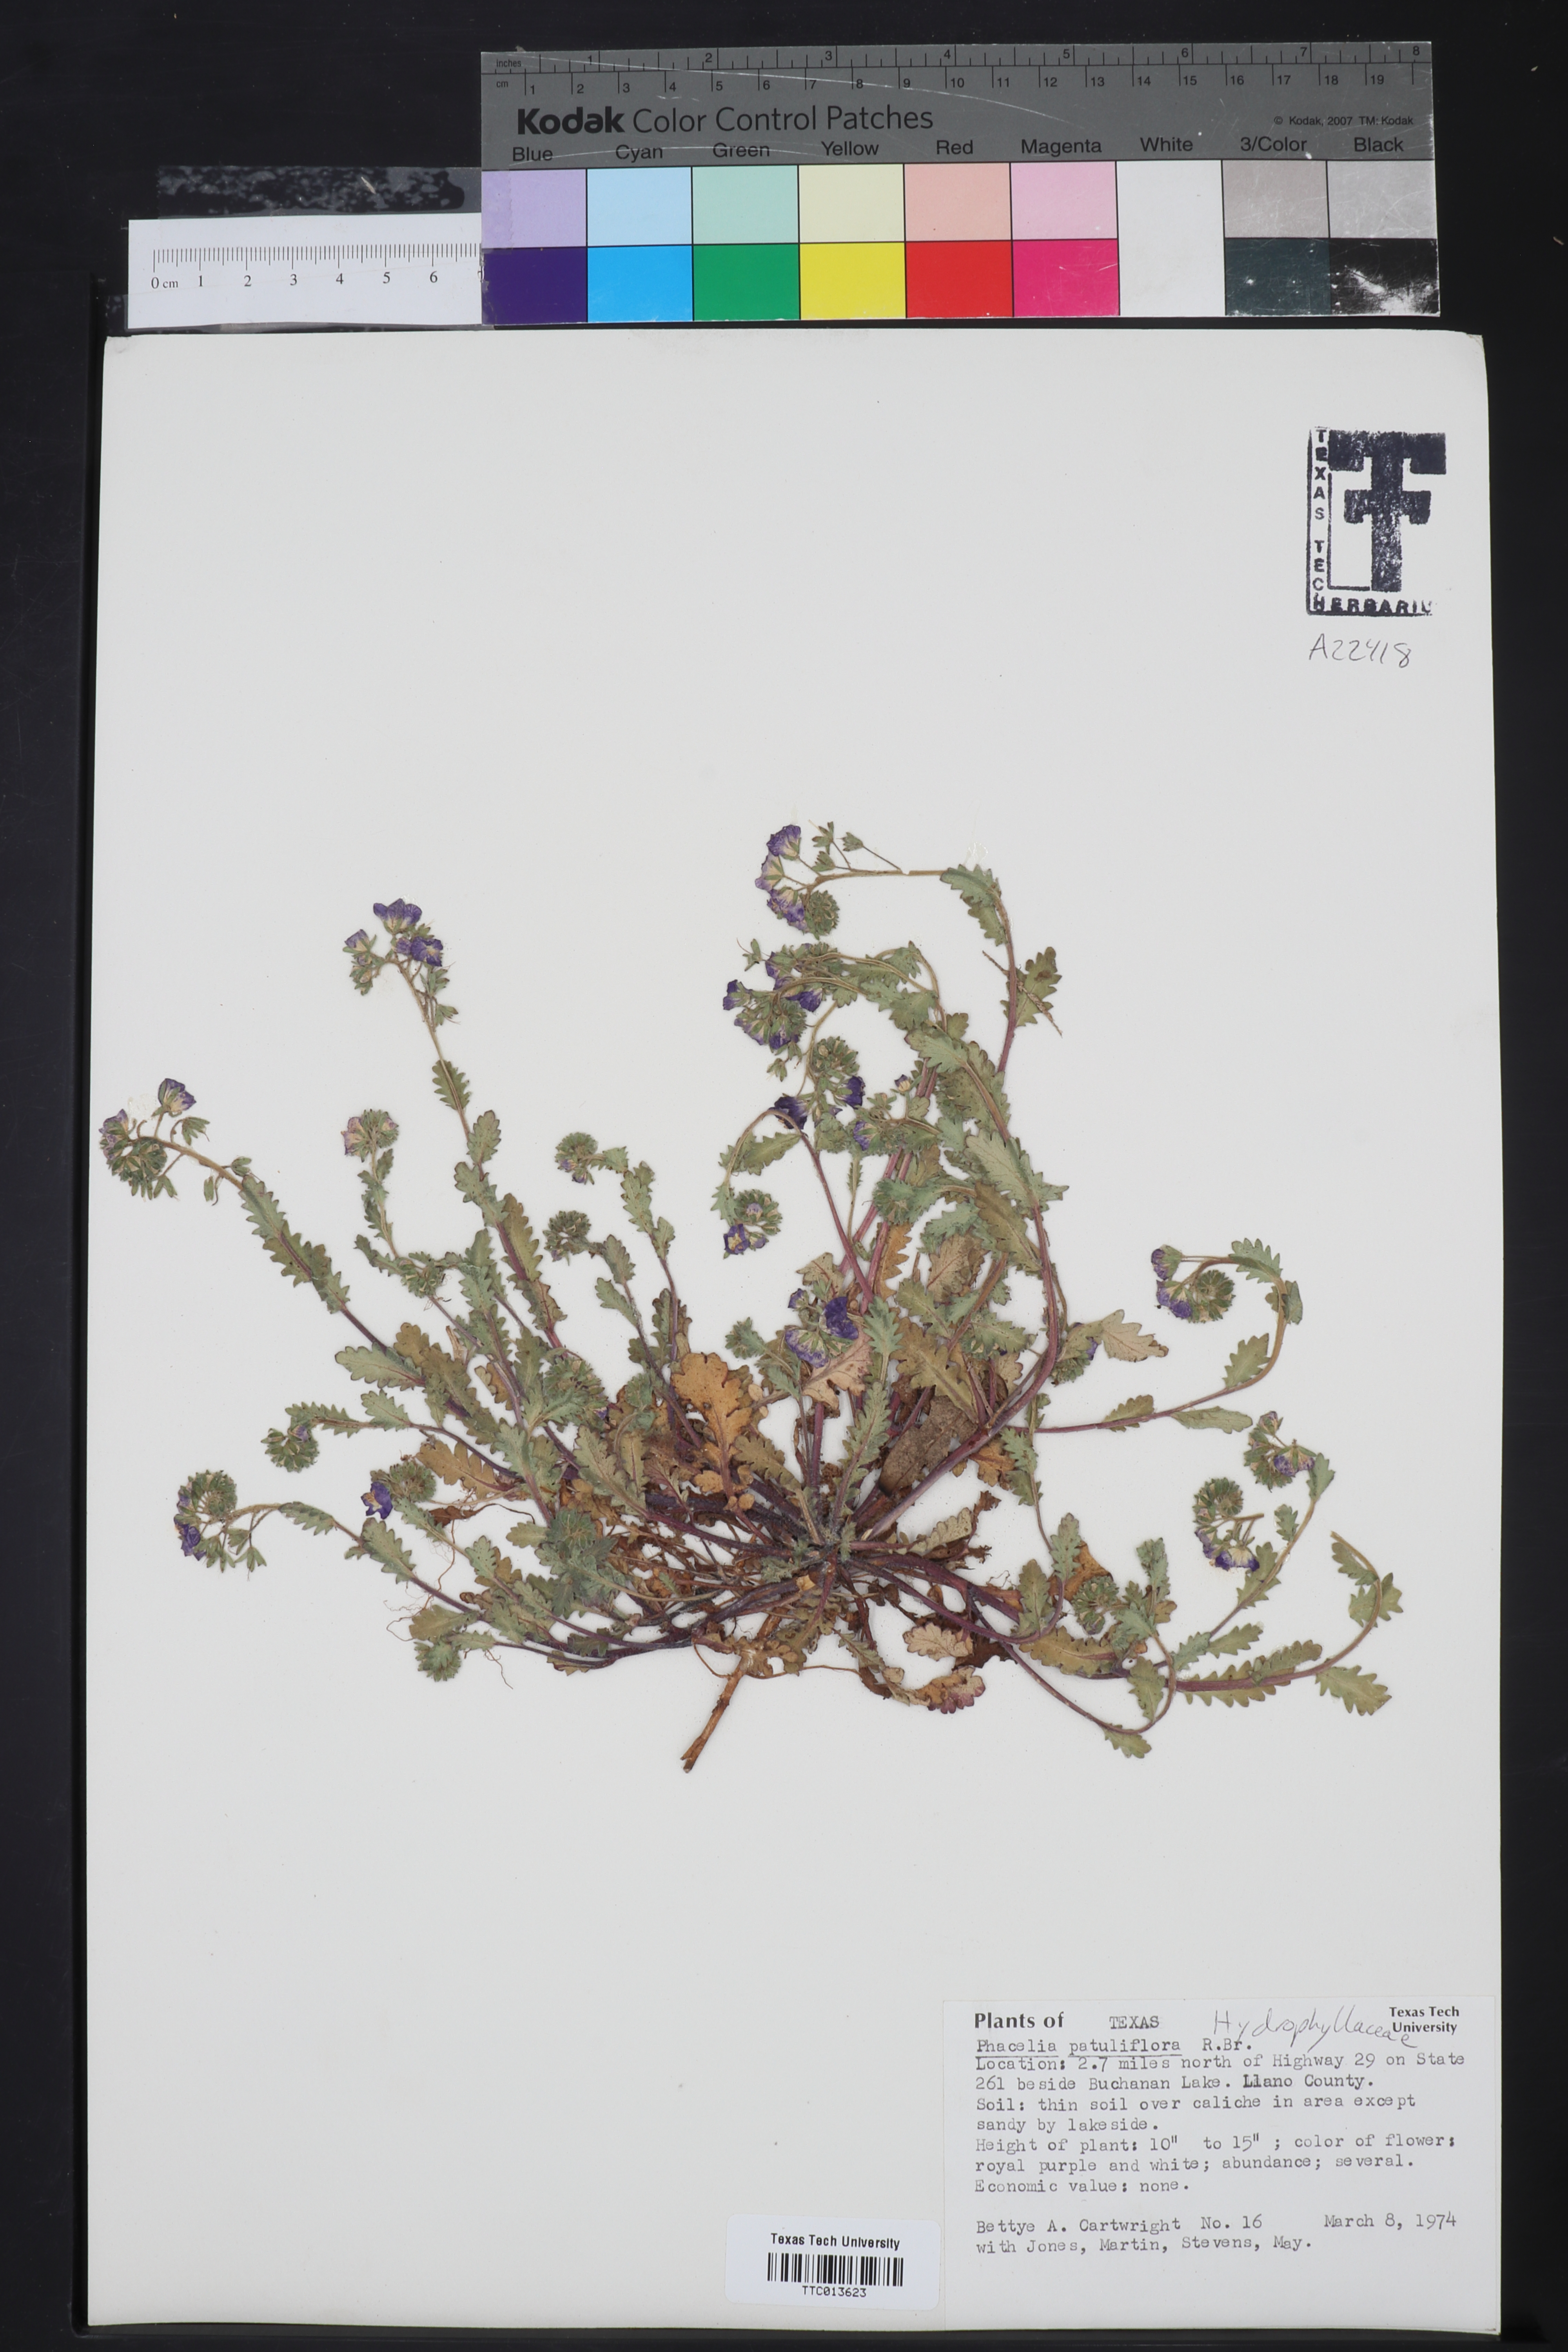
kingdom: Plantae
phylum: Tracheophyta
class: Magnoliopsida
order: Boraginales
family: Hydrophyllaceae
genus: Phacelia
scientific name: Phacelia patuliflora
